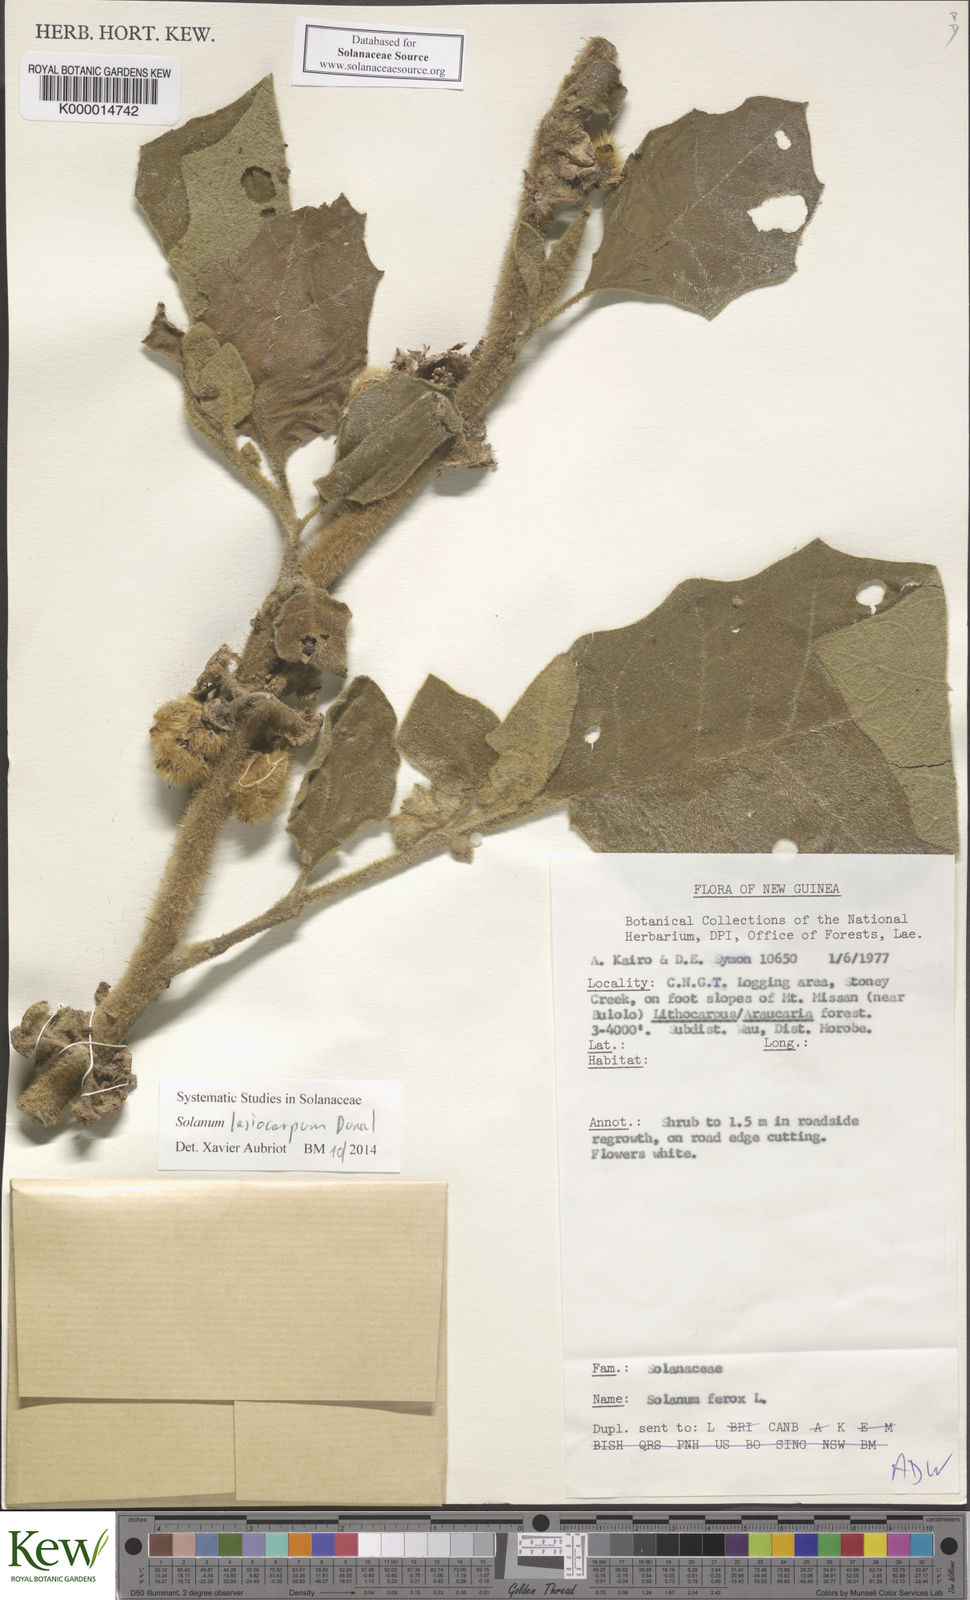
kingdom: Plantae
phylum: Tracheophyta
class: Magnoliopsida
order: Solanales
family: Solanaceae
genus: Solanum
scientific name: Solanum lasiocarpum
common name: Indian nightshade
